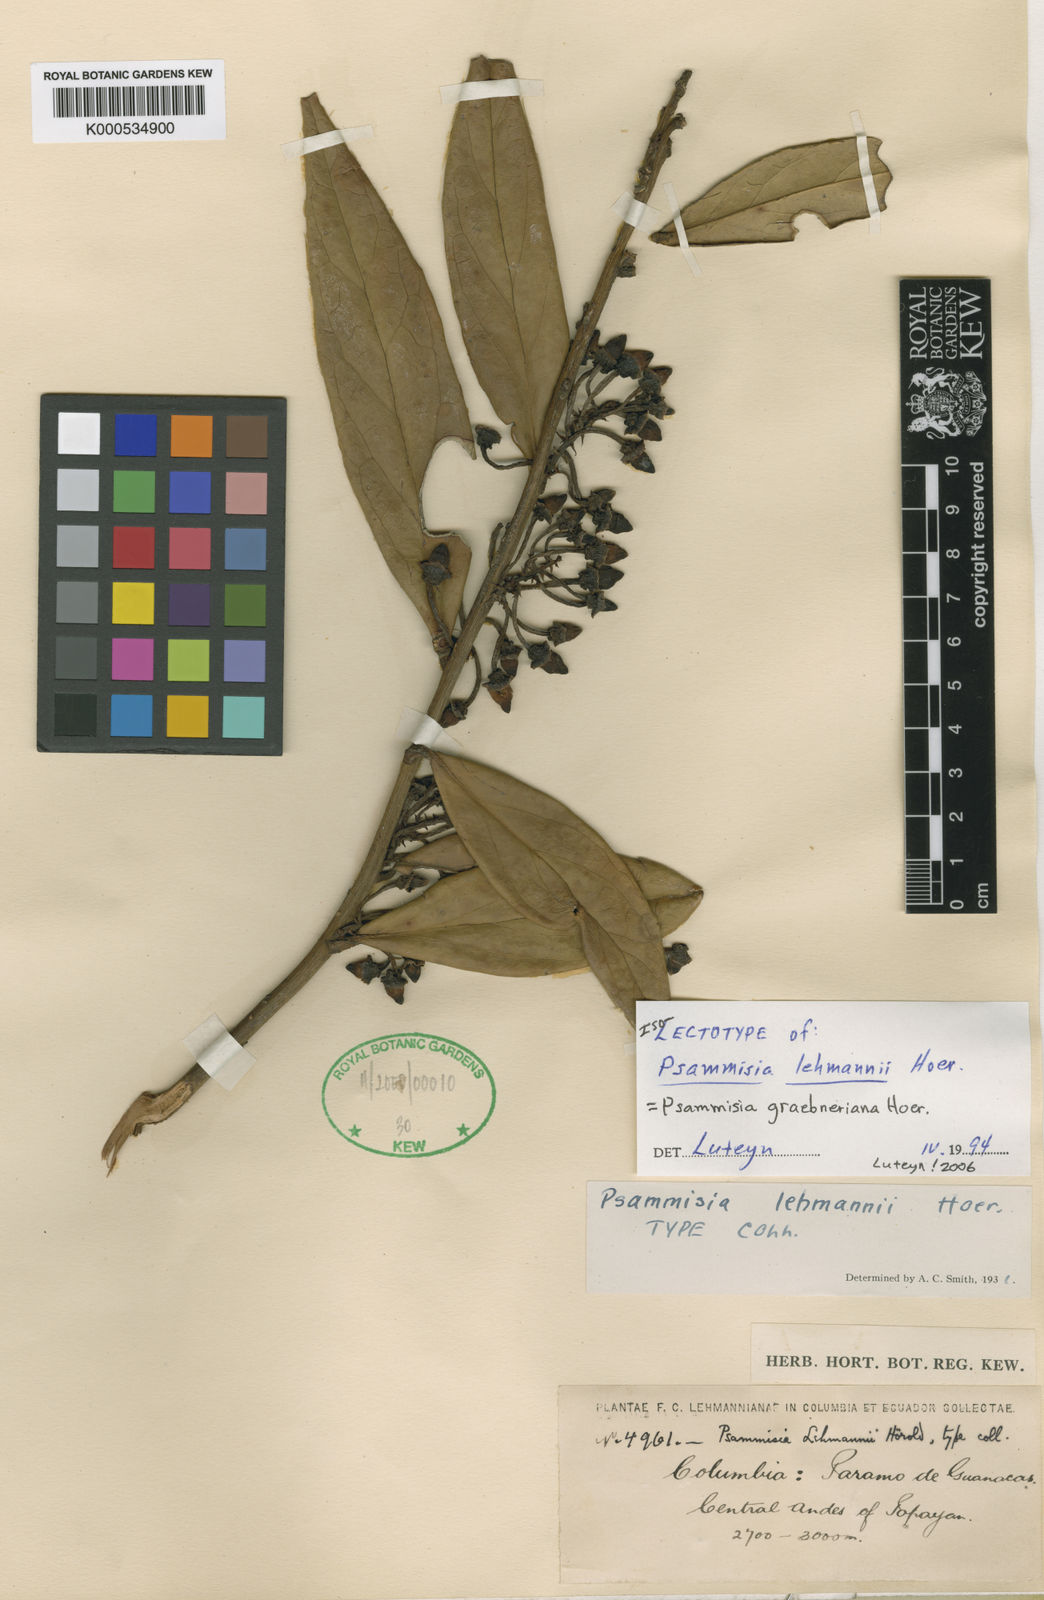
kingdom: Plantae
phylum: Tracheophyta
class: Magnoliopsida
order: Ericales
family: Ericaceae
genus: Psammisia
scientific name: Psammisia graebneriana
